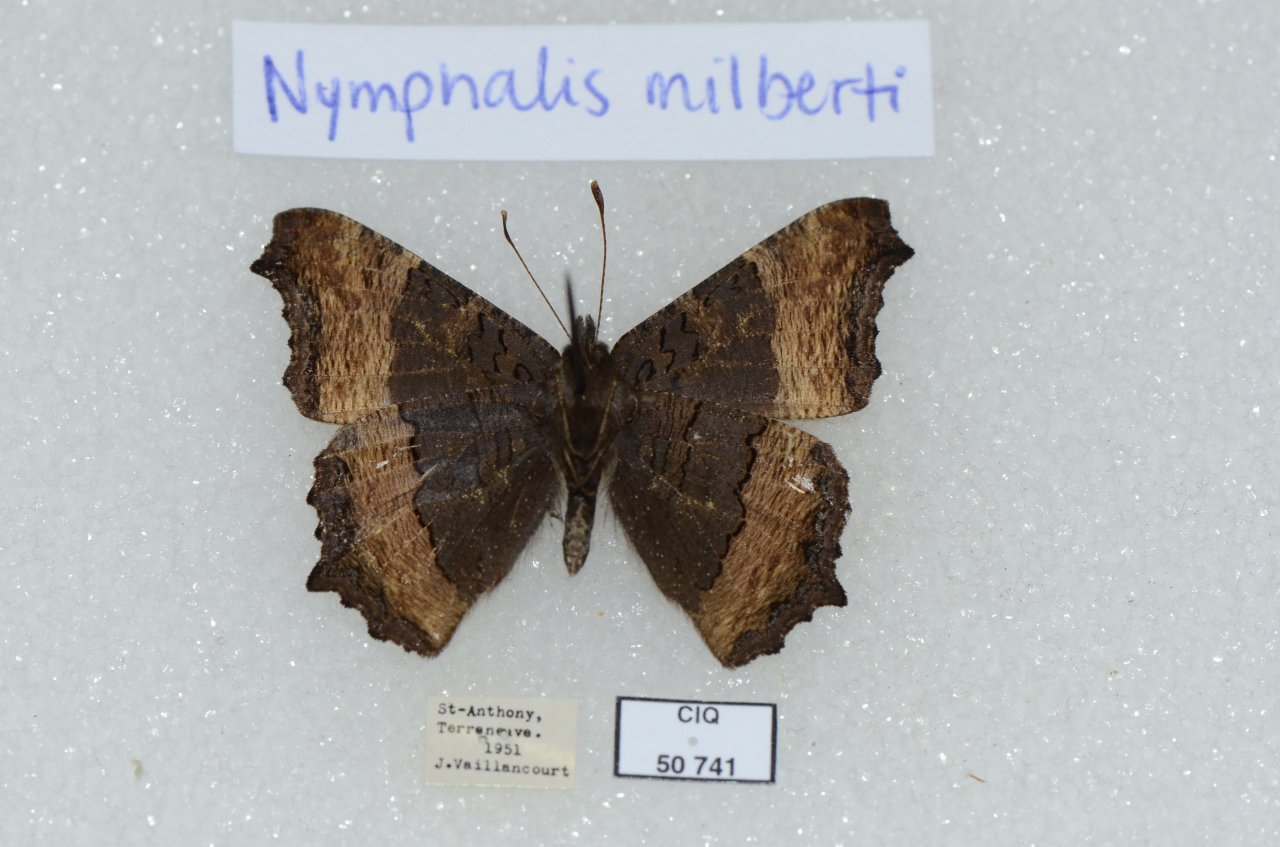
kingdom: Animalia
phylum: Arthropoda
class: Insecta
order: Lepidoptera
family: Nymphalidae
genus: Aglais
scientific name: Aglais milberti
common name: Milbert's Tortoiseshell
